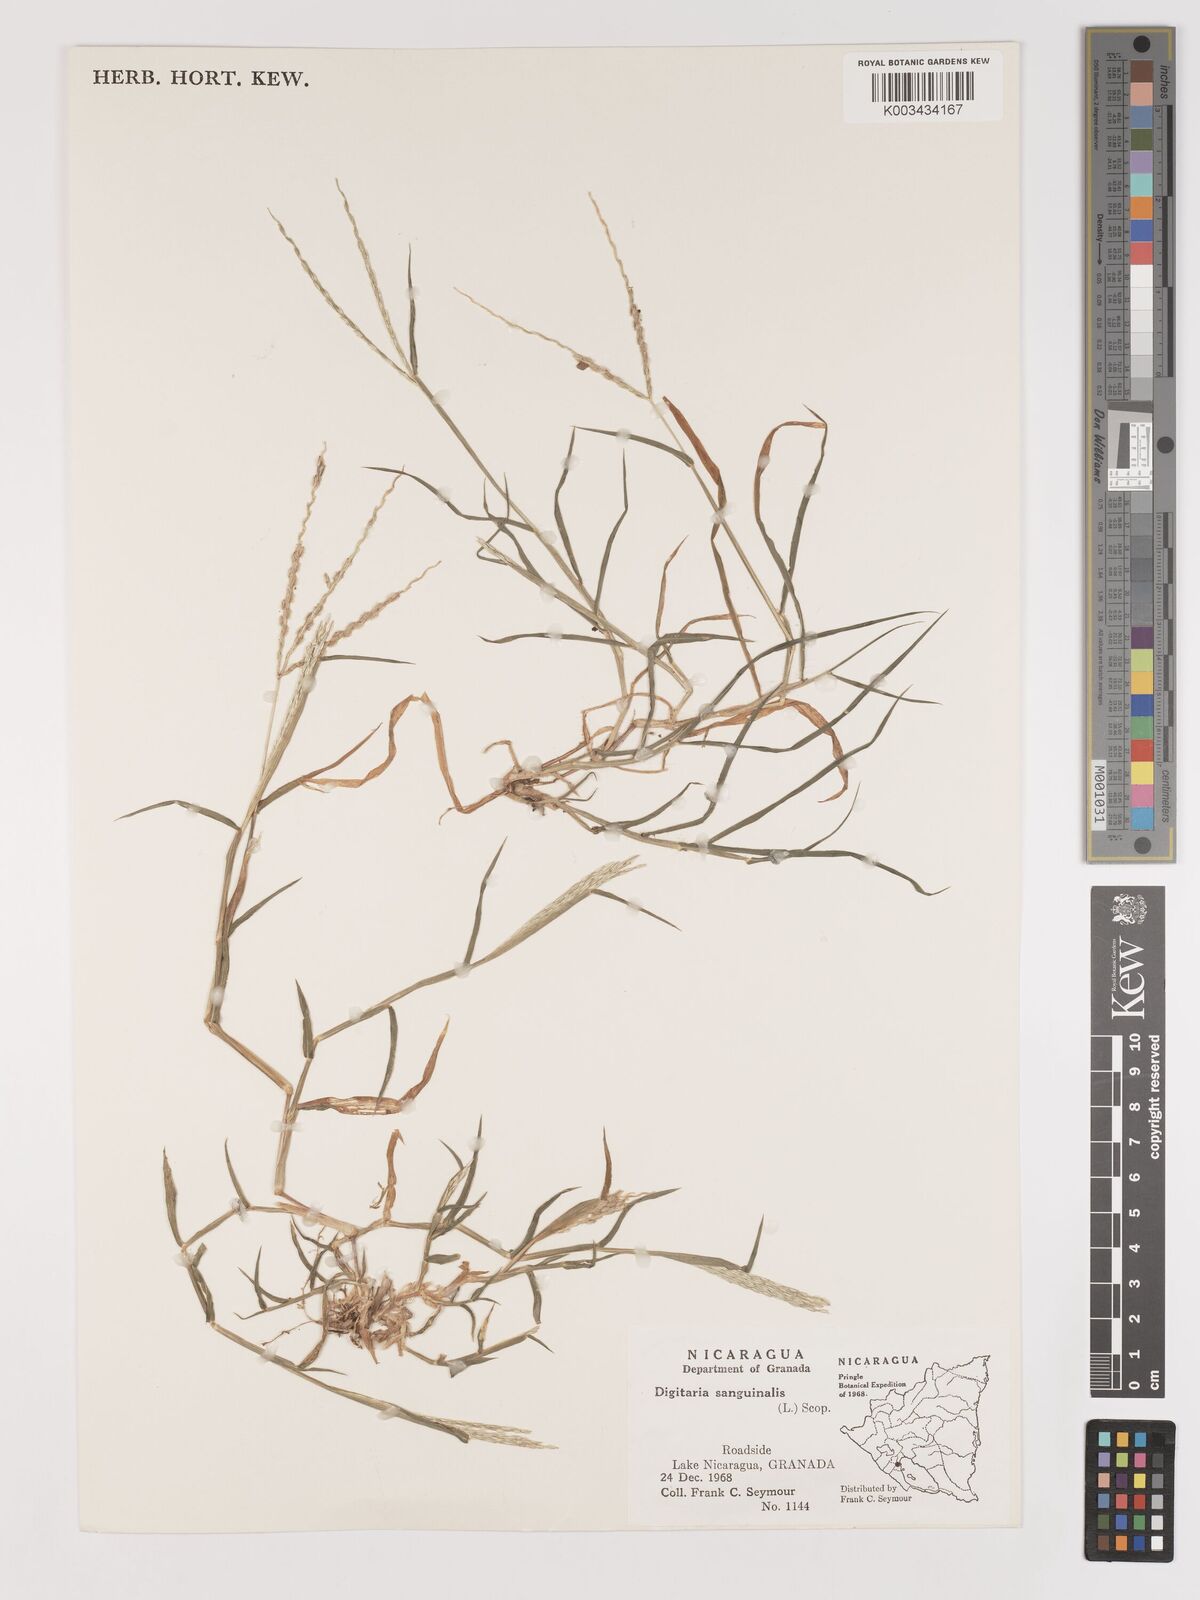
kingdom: Plantae
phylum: Tracheophyta
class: Liliopsida
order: Poales
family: Poaceae
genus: Digitaria
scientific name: Digitaria ciliaris
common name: Tropical finger-grass
